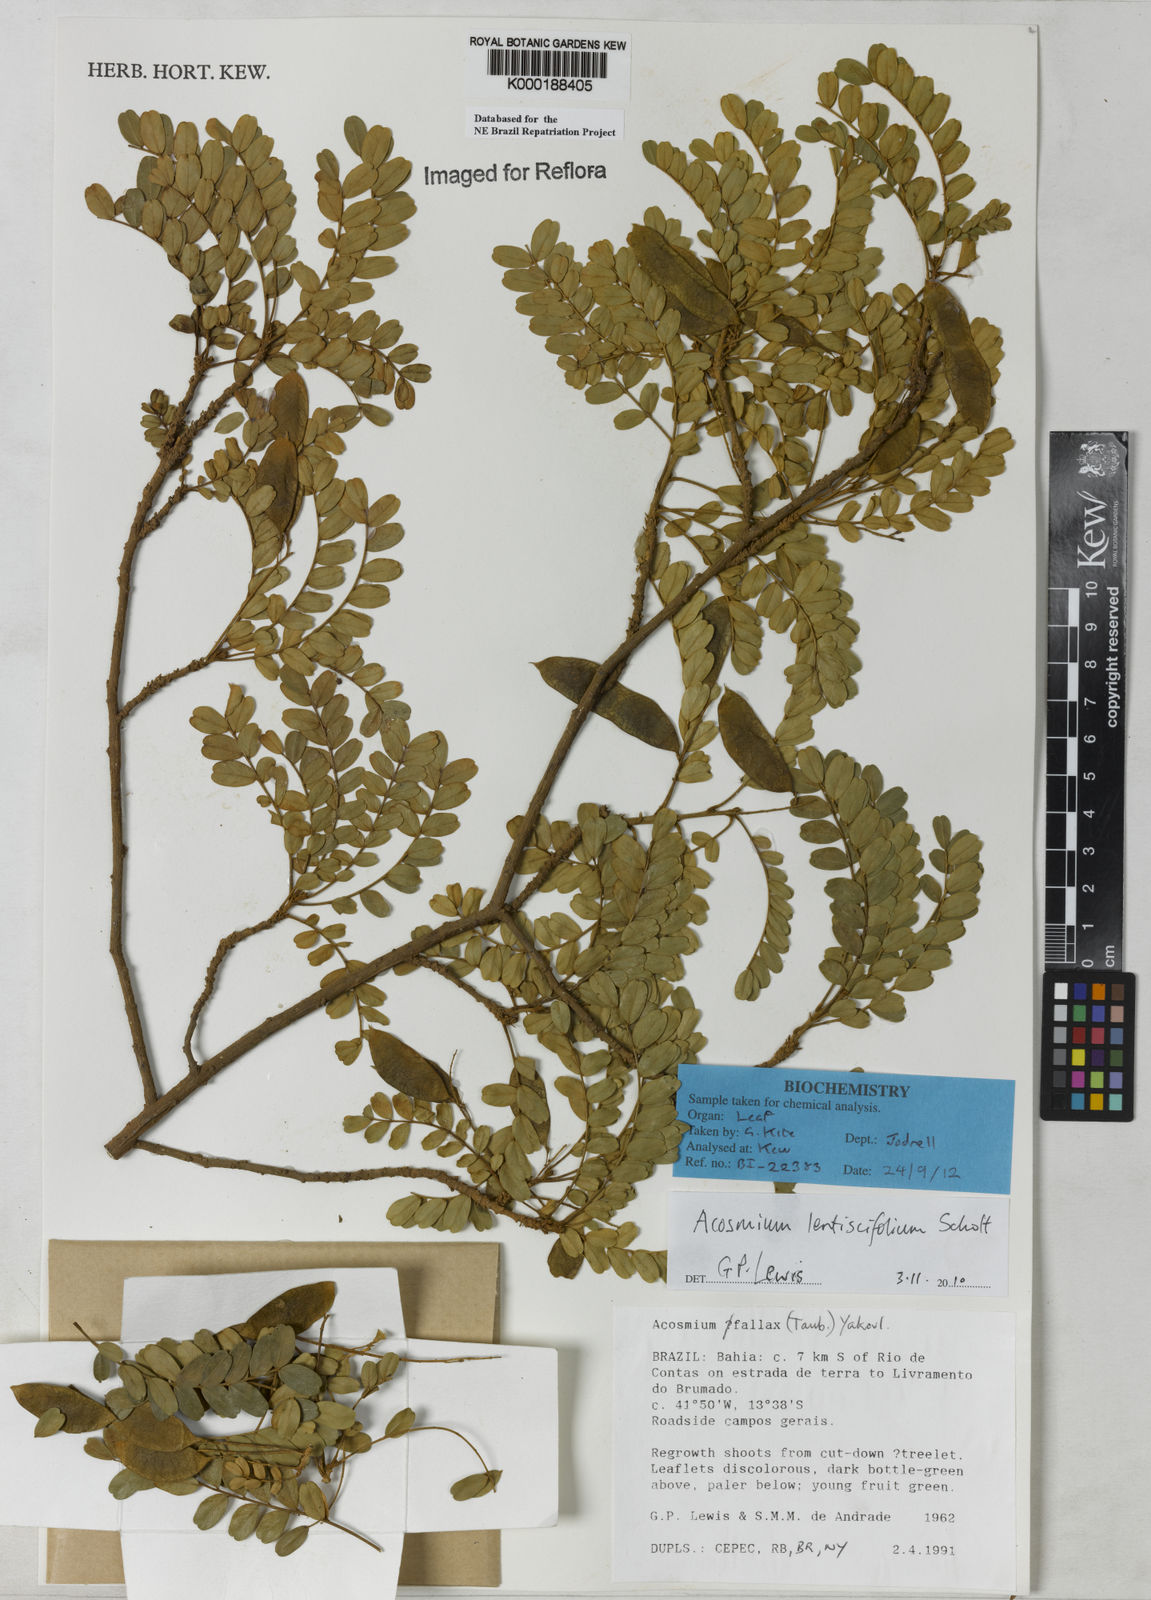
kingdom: Plantae
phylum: Tracheophyta
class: Magnoliopsida
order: Fabales
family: Fabaceae
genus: Acosmium
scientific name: Acosmium lentiscifolium
